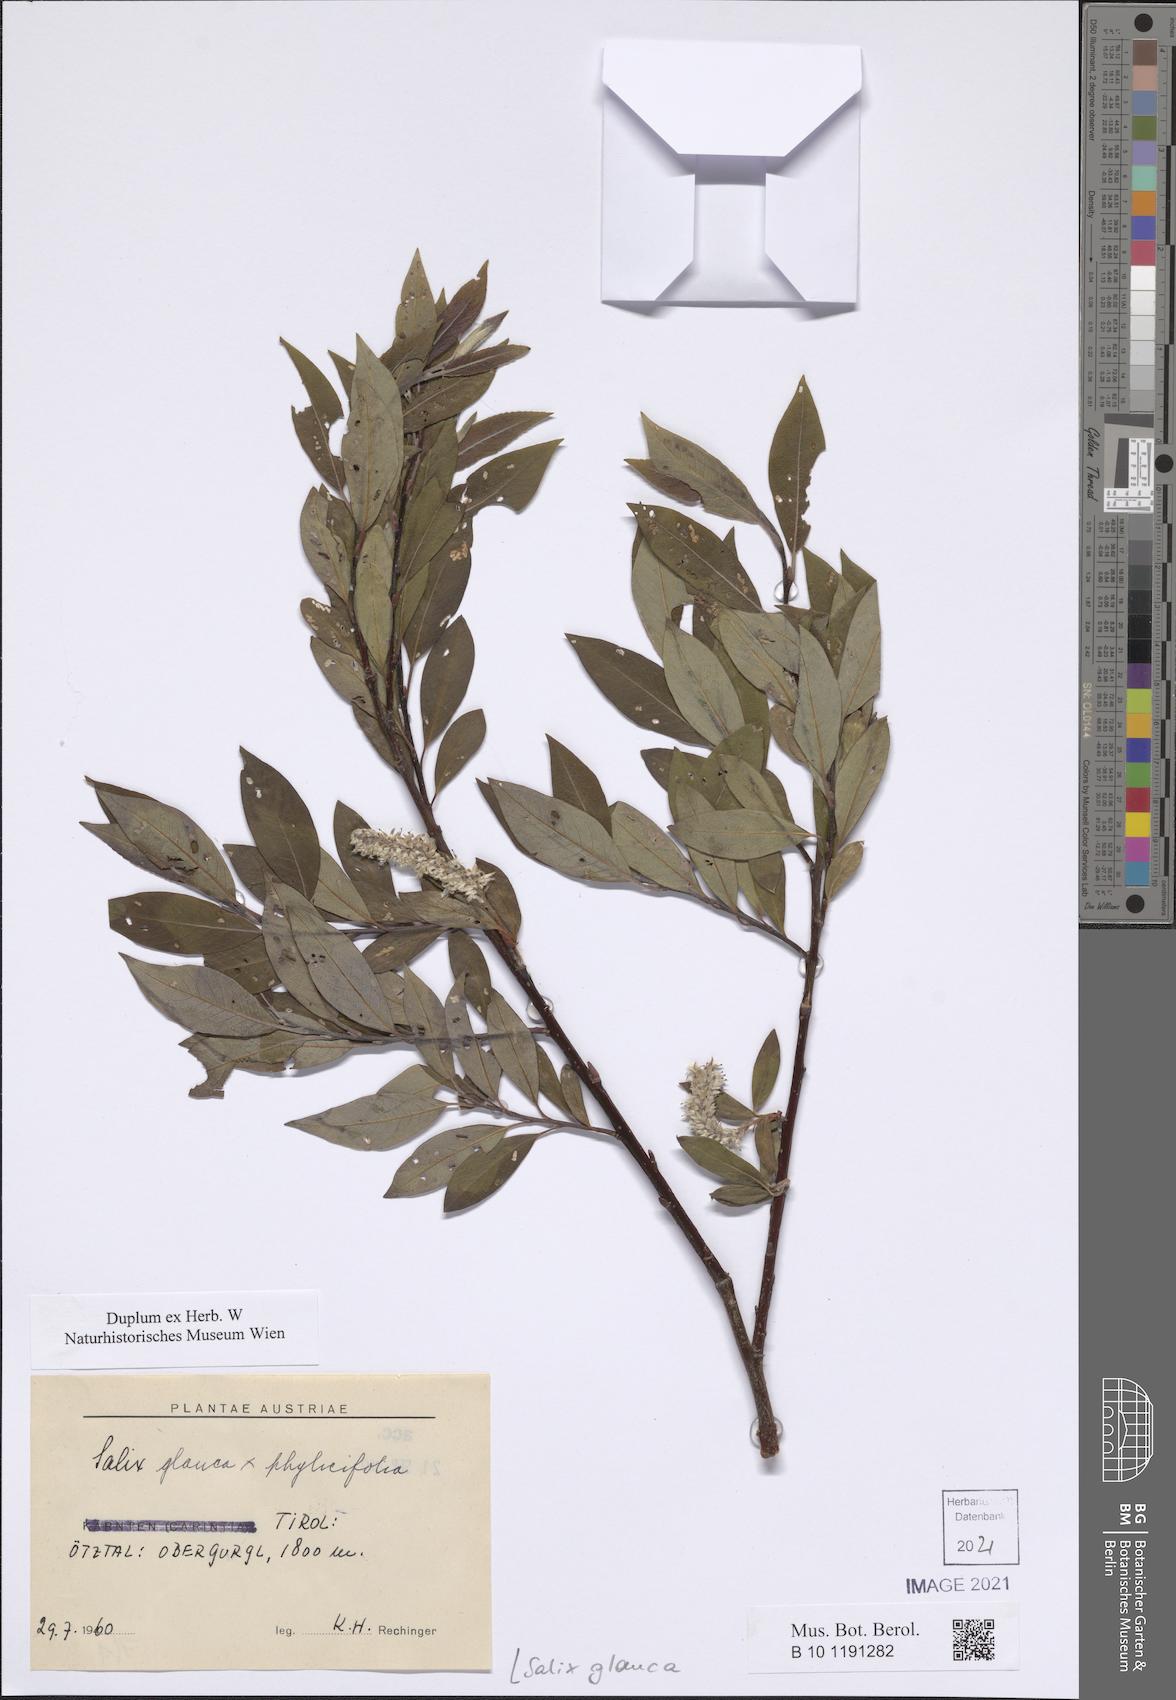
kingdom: Plantae
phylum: Tracheophyta
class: Magnoliopsida
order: Malpighiales
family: Salicaceae
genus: Salix
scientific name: Salix glauca
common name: Glaucous willow
